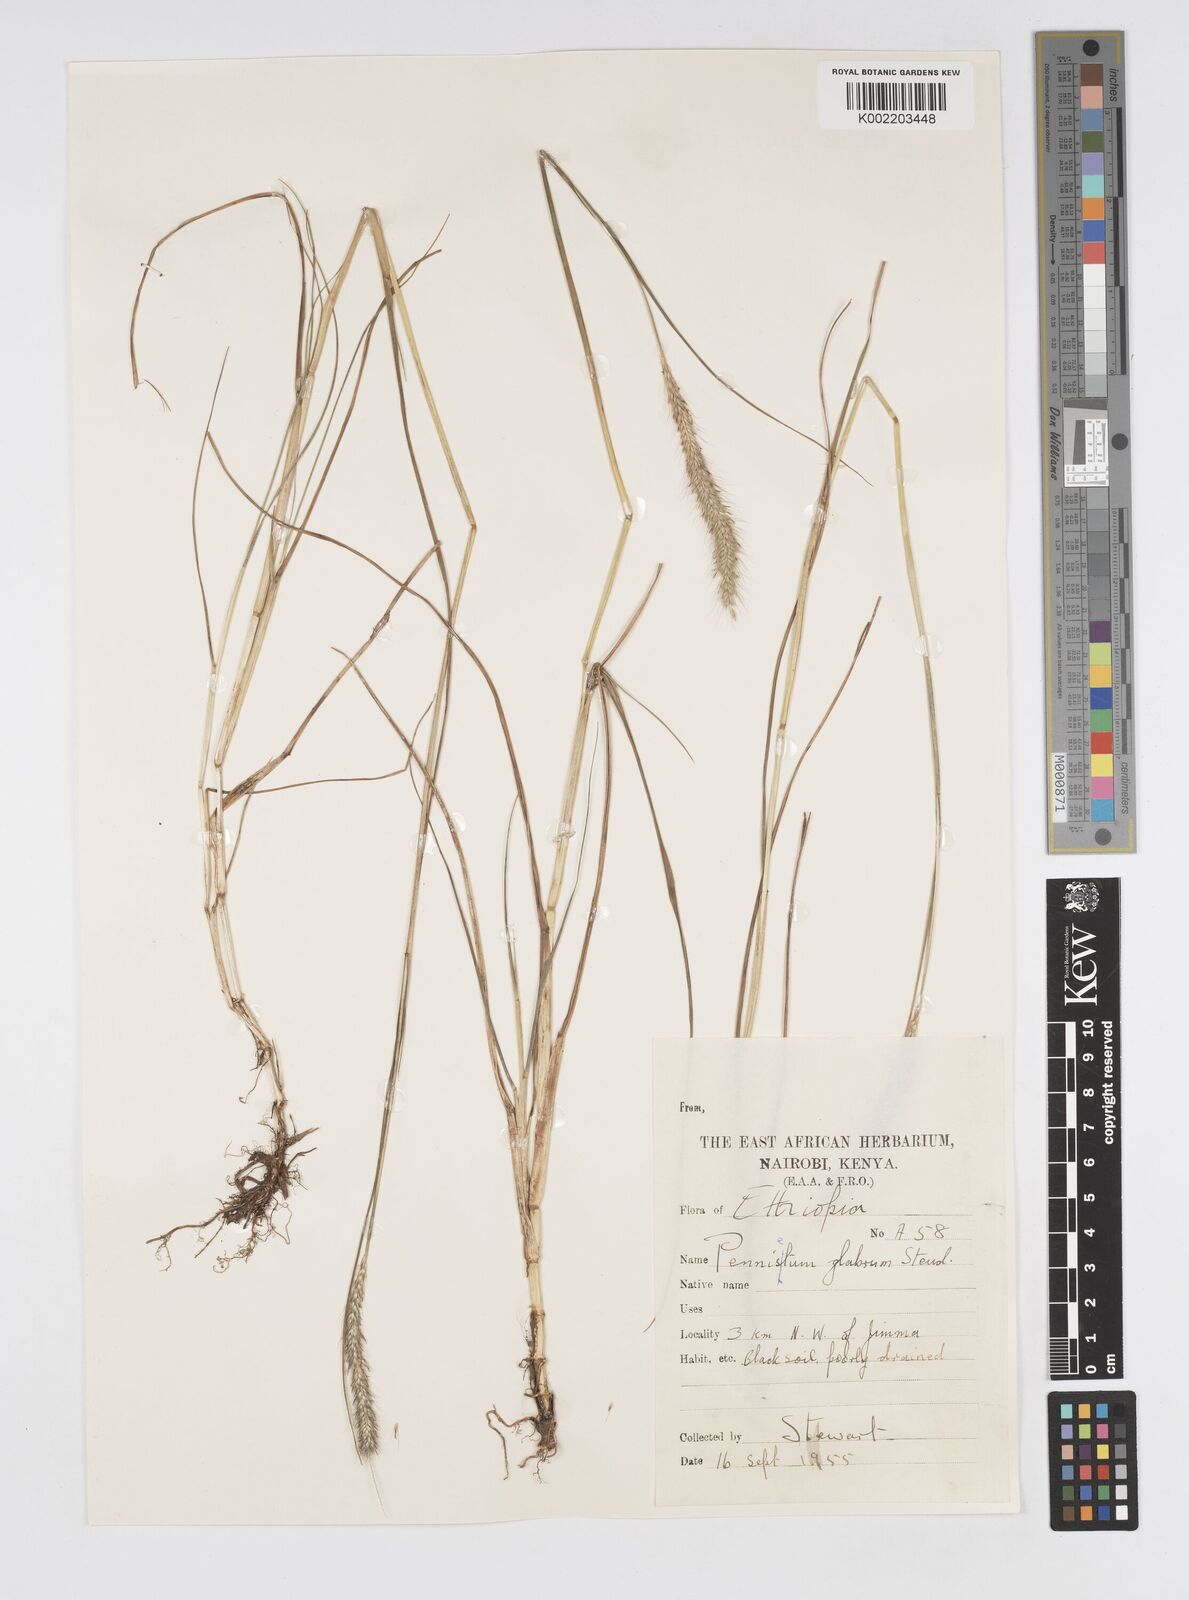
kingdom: Plantae
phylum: Tracheophyta
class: Liliopsida
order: Poales
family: Poaceae
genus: Cenchrus
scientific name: Cenchrus geniculatus
